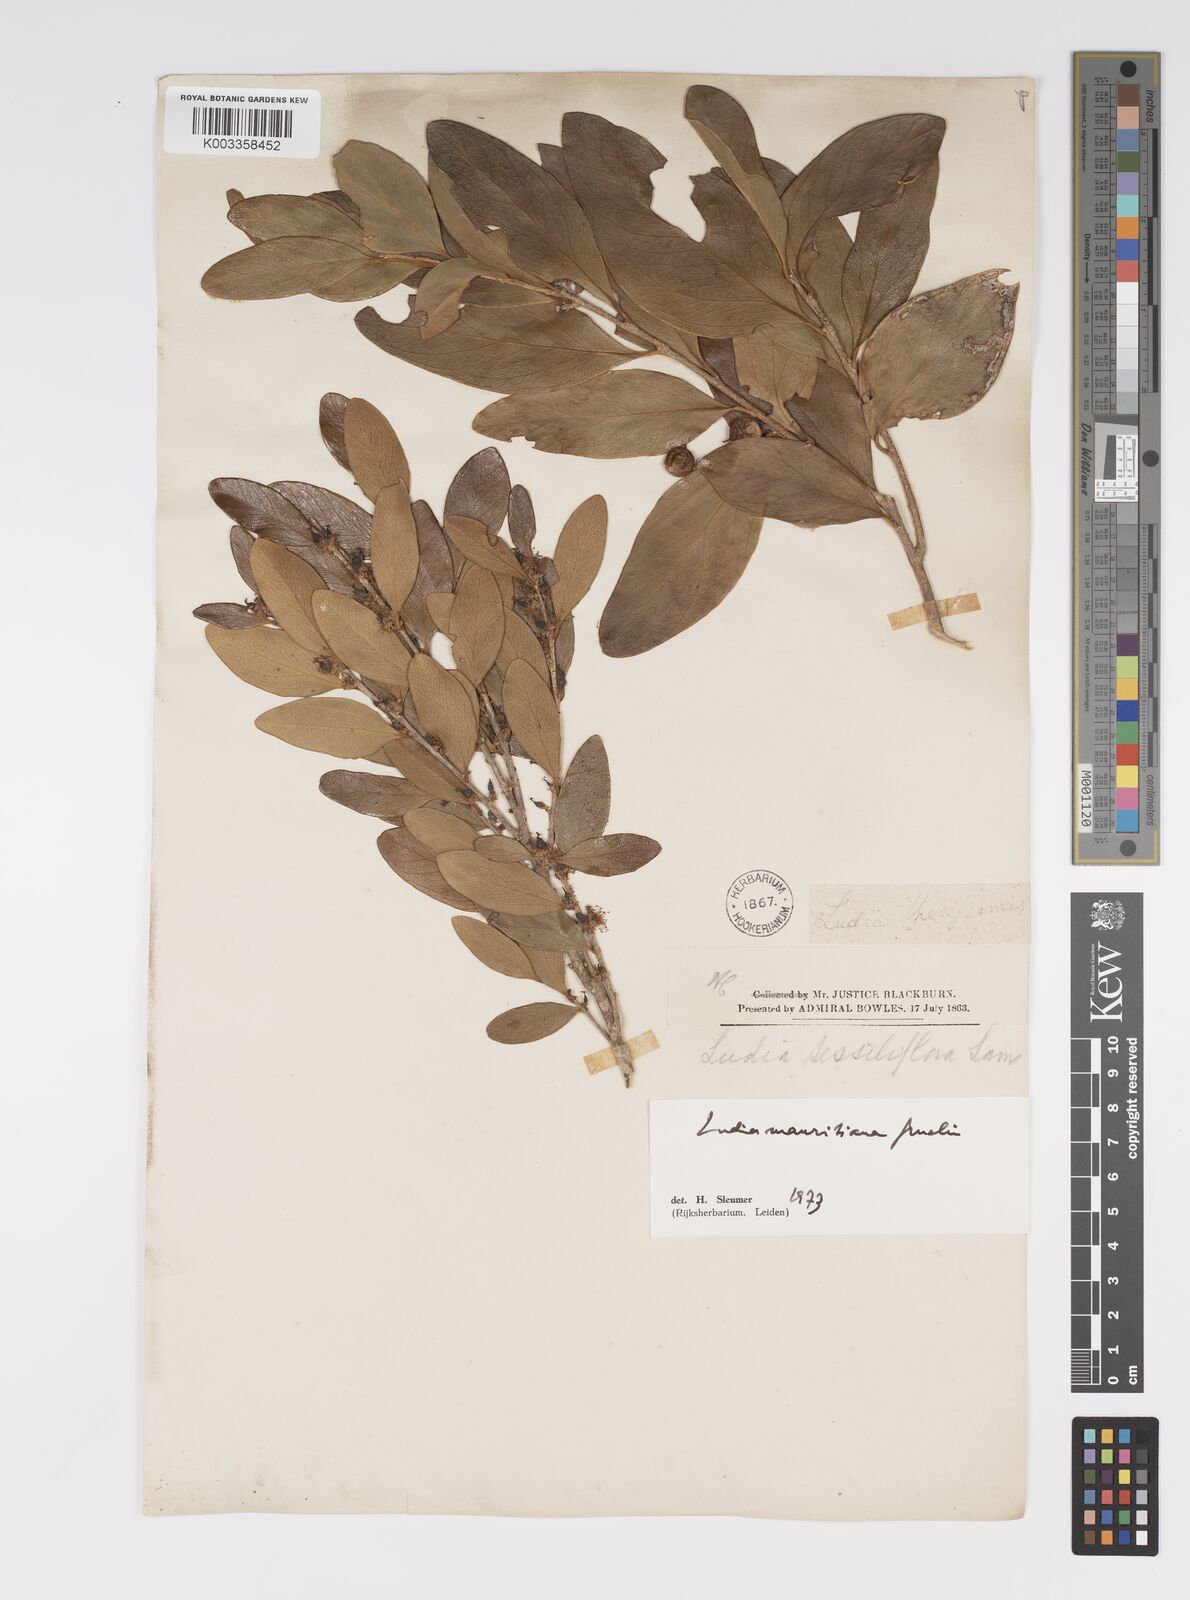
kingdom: Plantae
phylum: Tracheophyta
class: Magnoliopsida
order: Malpighiales
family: Salicaceae
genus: Ludia
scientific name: Ludia mauritiana
